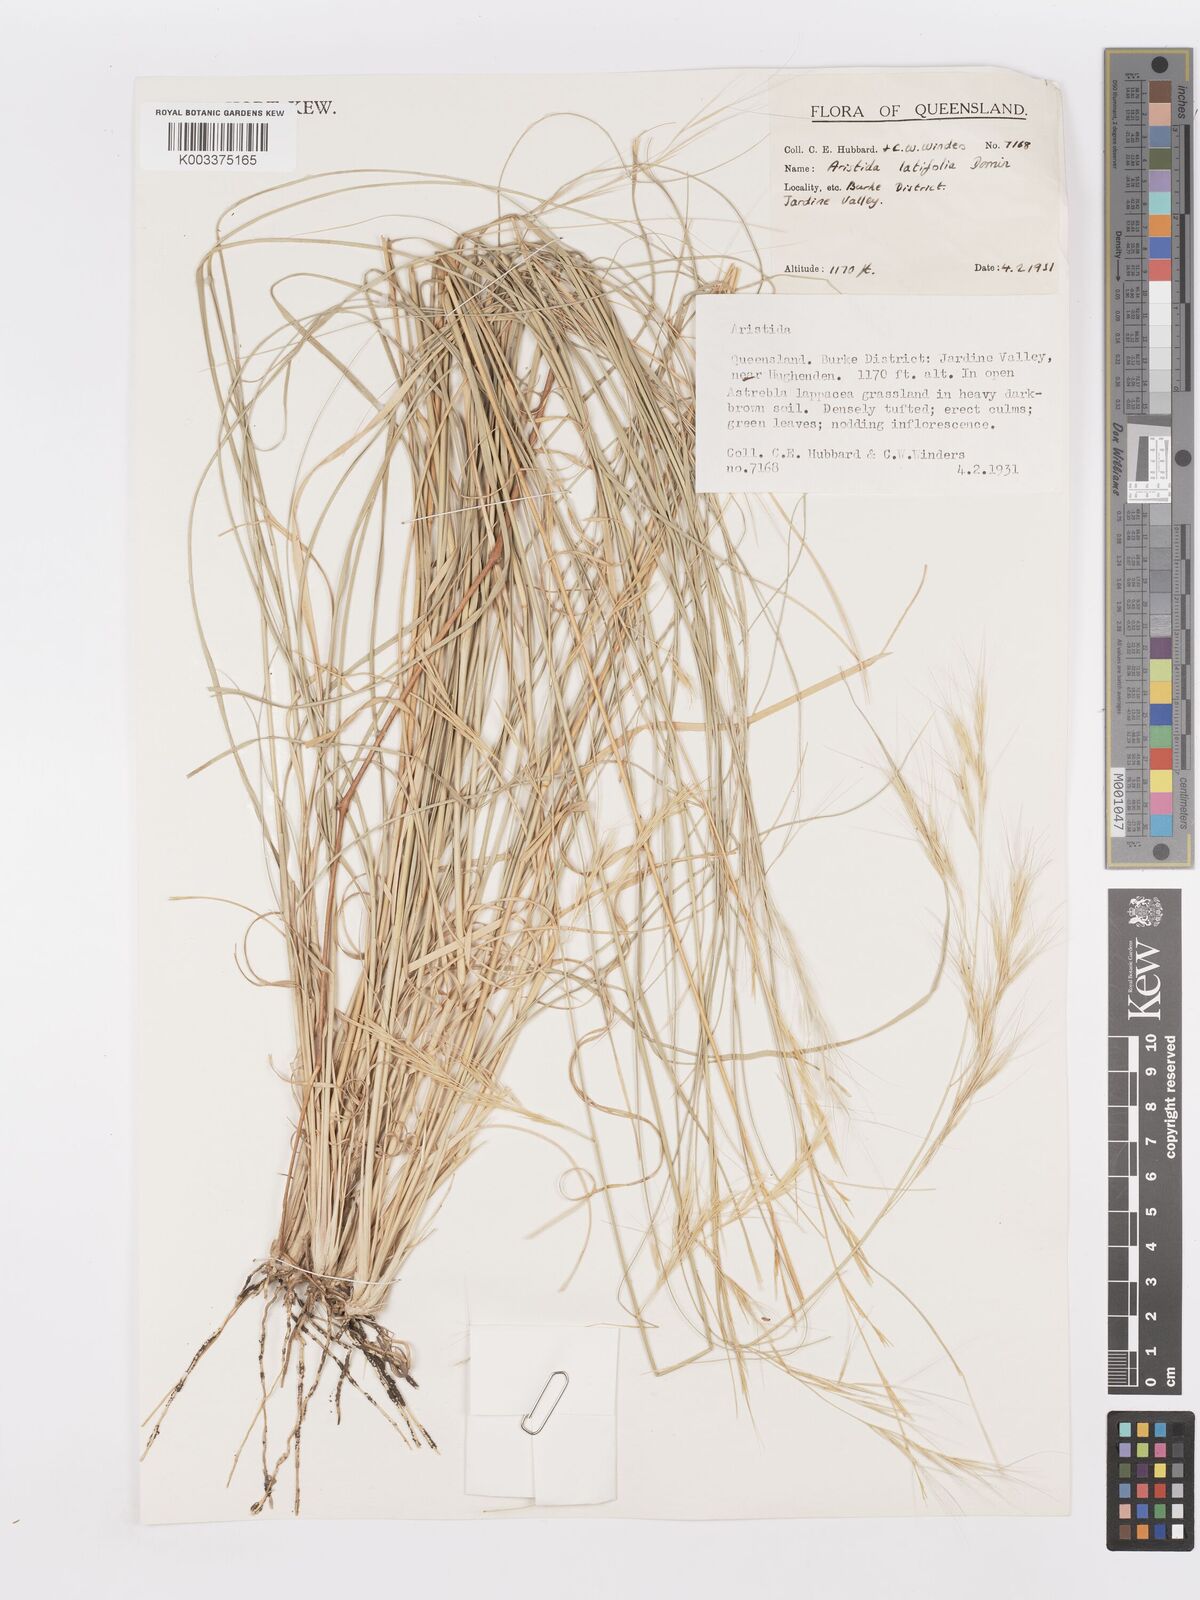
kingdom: Plantae
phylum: Tracheophyta
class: Liliopsida
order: Poales
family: Poaceae
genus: Aristida
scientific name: Aristida latifolia
